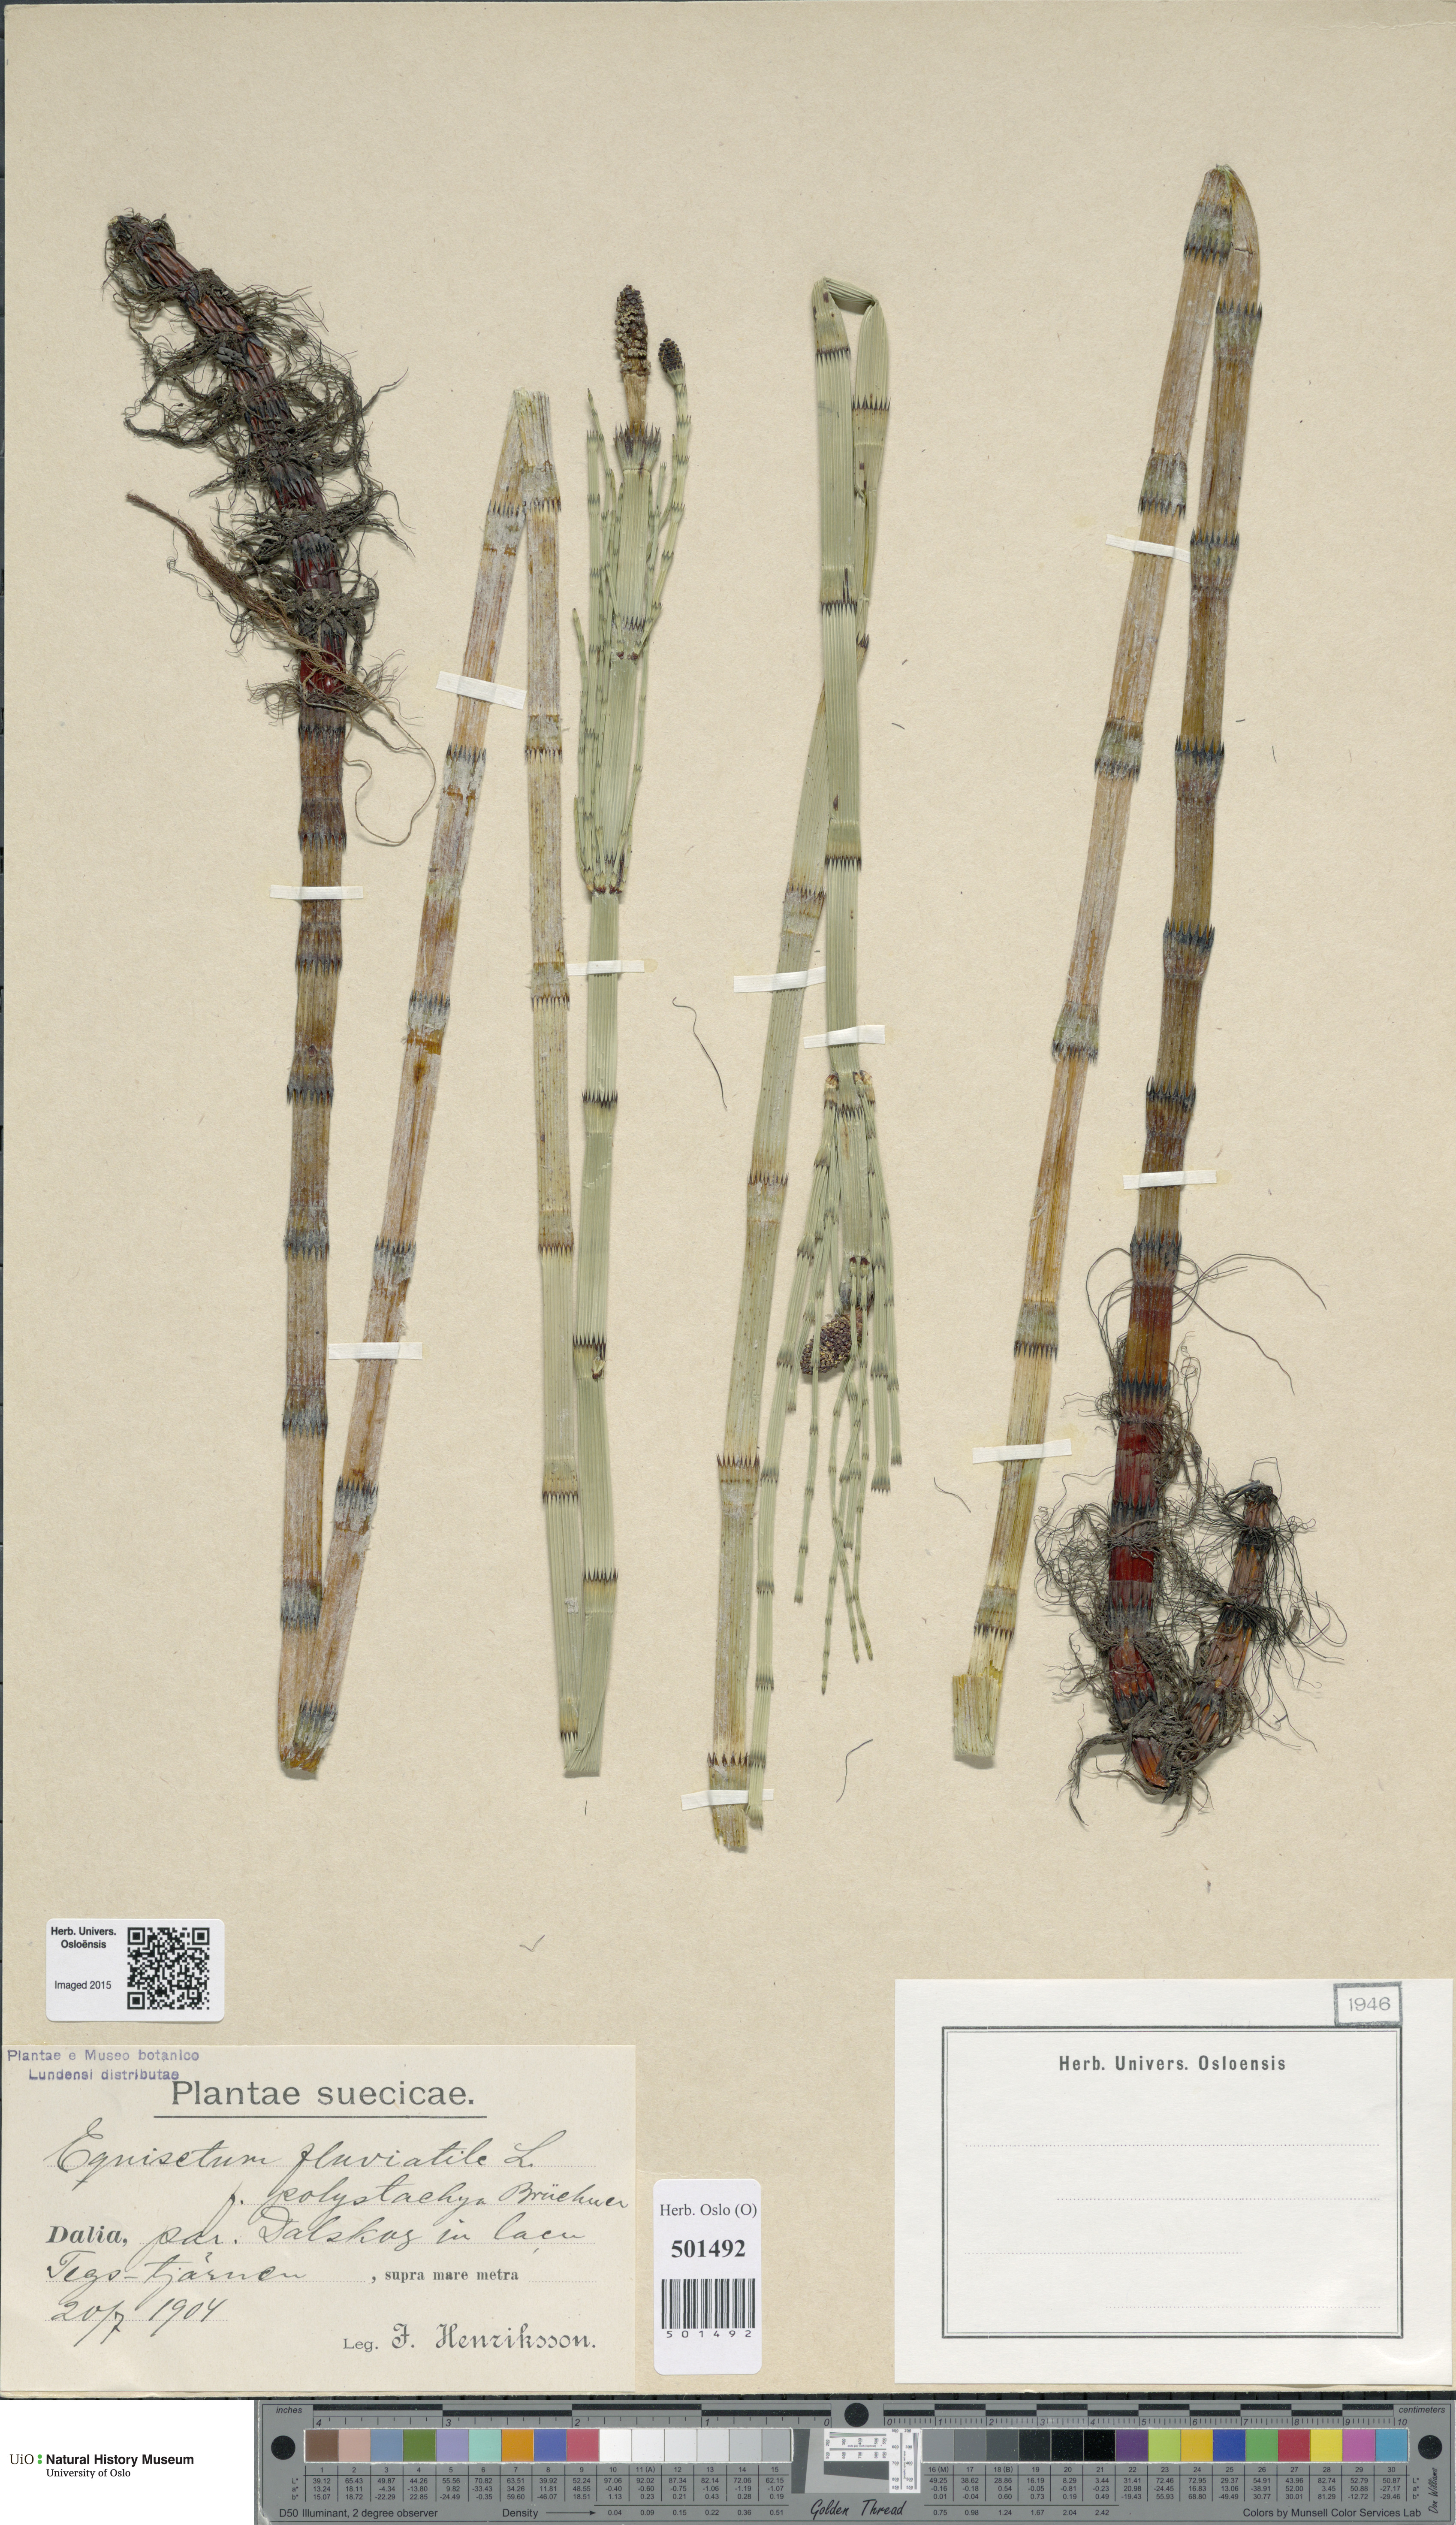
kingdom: Plantae
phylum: Tracheophyta
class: Polypodiopsida
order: Equisetales
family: Equisetaceae
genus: Equisetum
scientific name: Equisetum fluviatile
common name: Water horsetail
